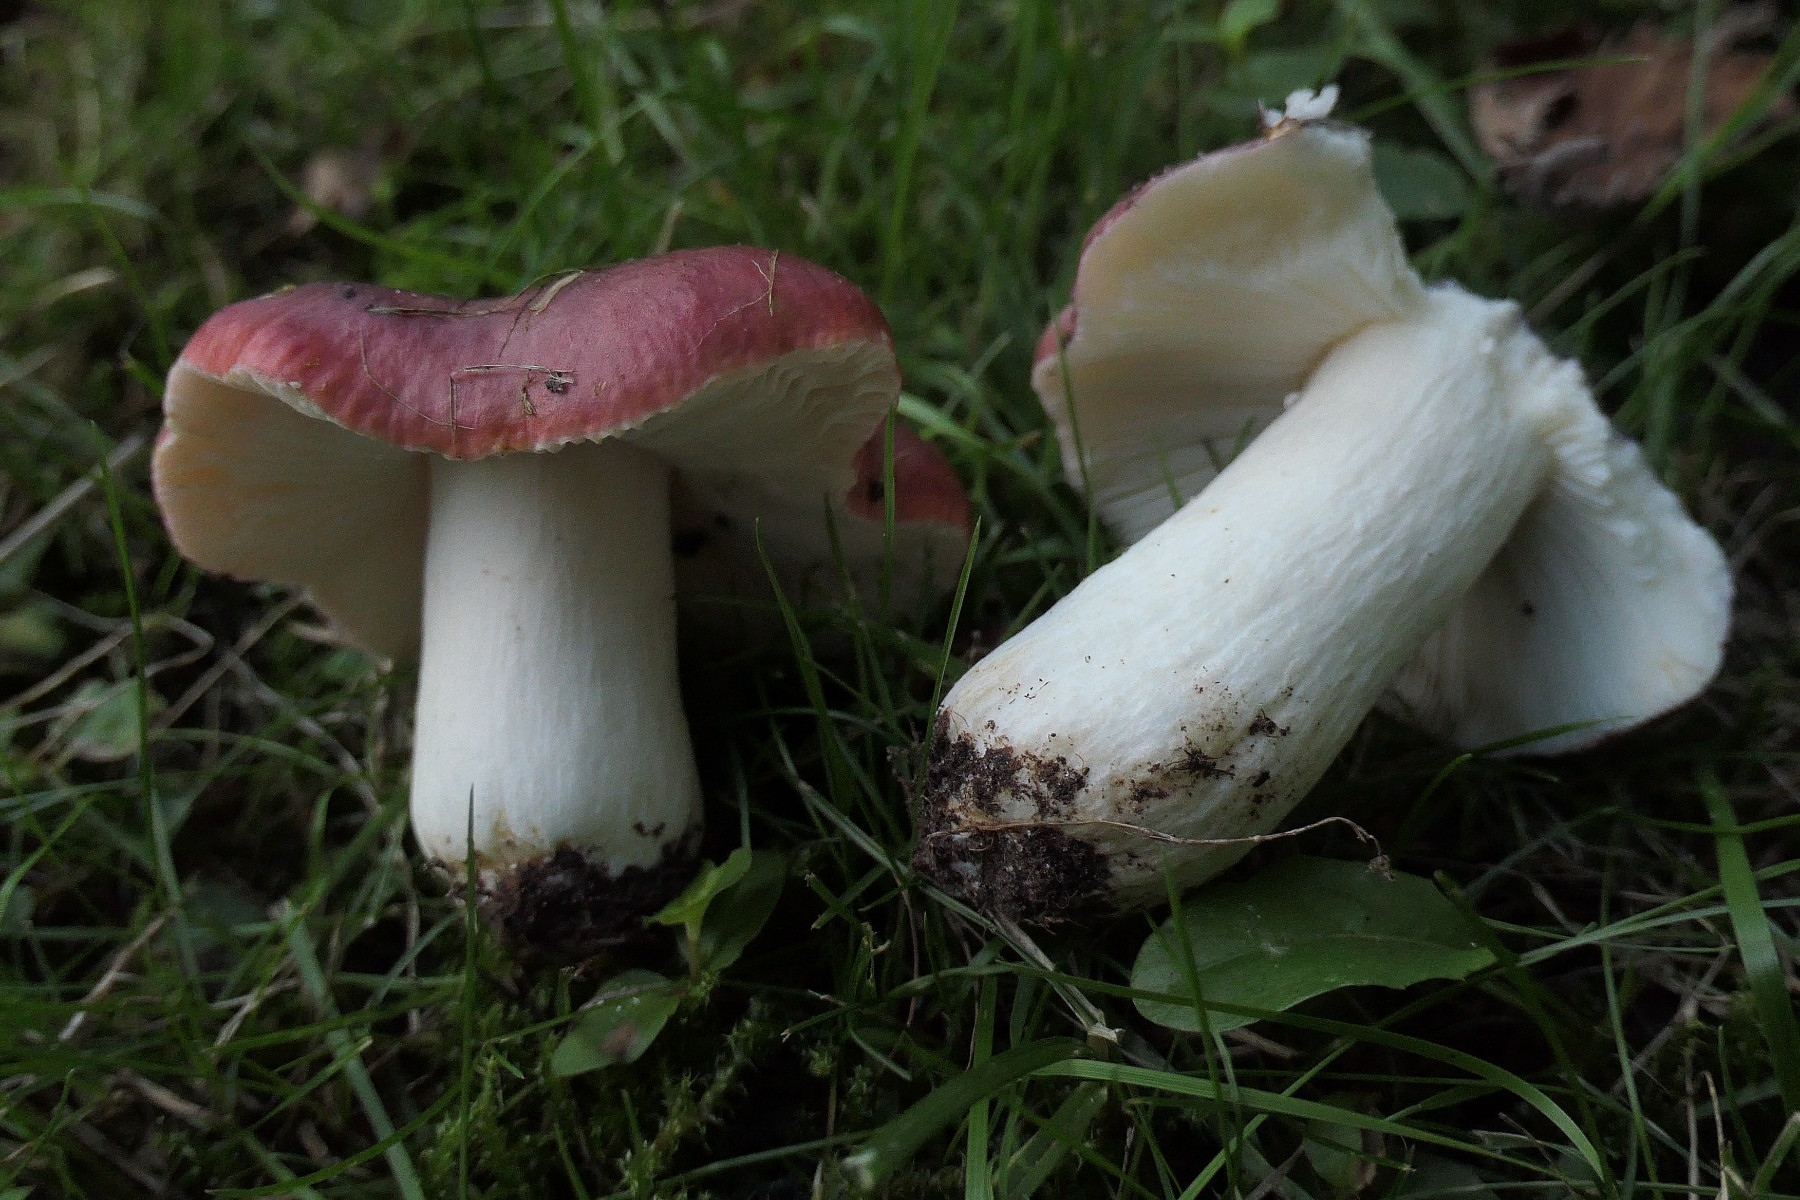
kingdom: Fungi
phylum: Basidiomycota
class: Agaricomycetes
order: Russulales
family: Russulaceae
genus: Russula
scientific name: Russula atropurpurea
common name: purpurbroget skørhat
